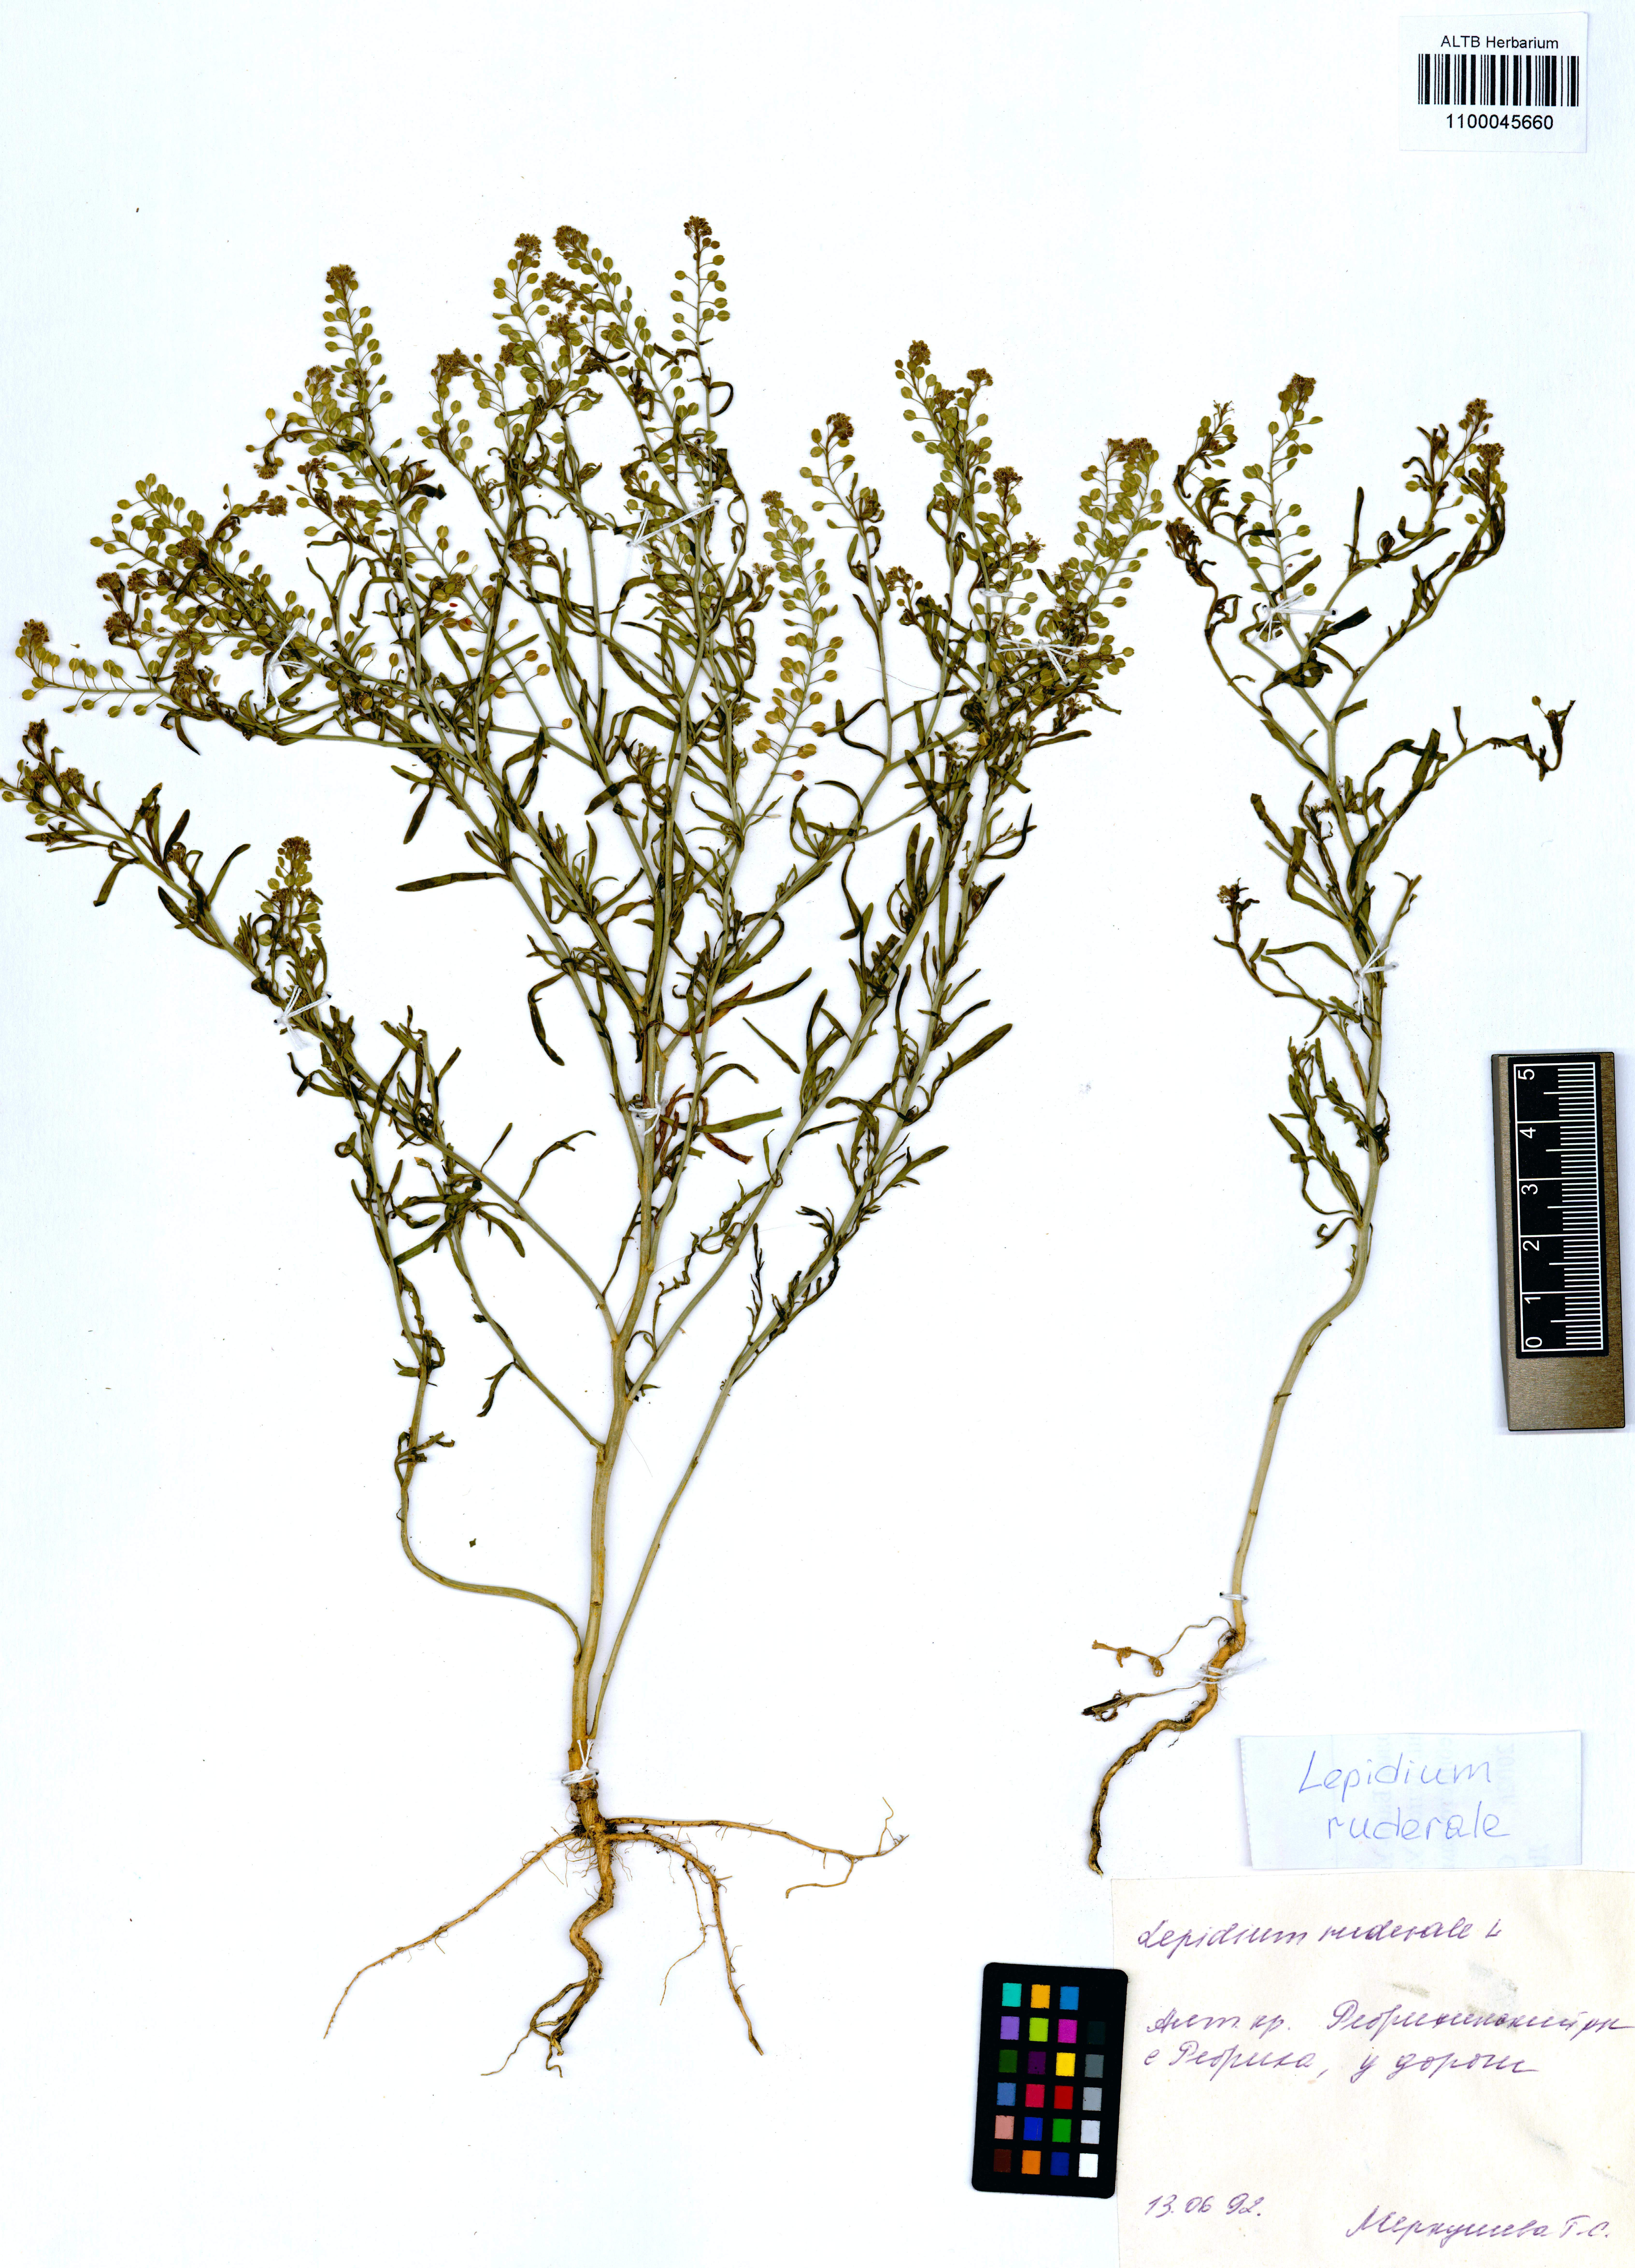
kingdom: Plantae
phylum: Tracheophyta
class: Magnoliopsida
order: Brassicales
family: Brassicaceae
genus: Lepidium
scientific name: Lepidium ruderale
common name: Narrow-leaved pepperwort
